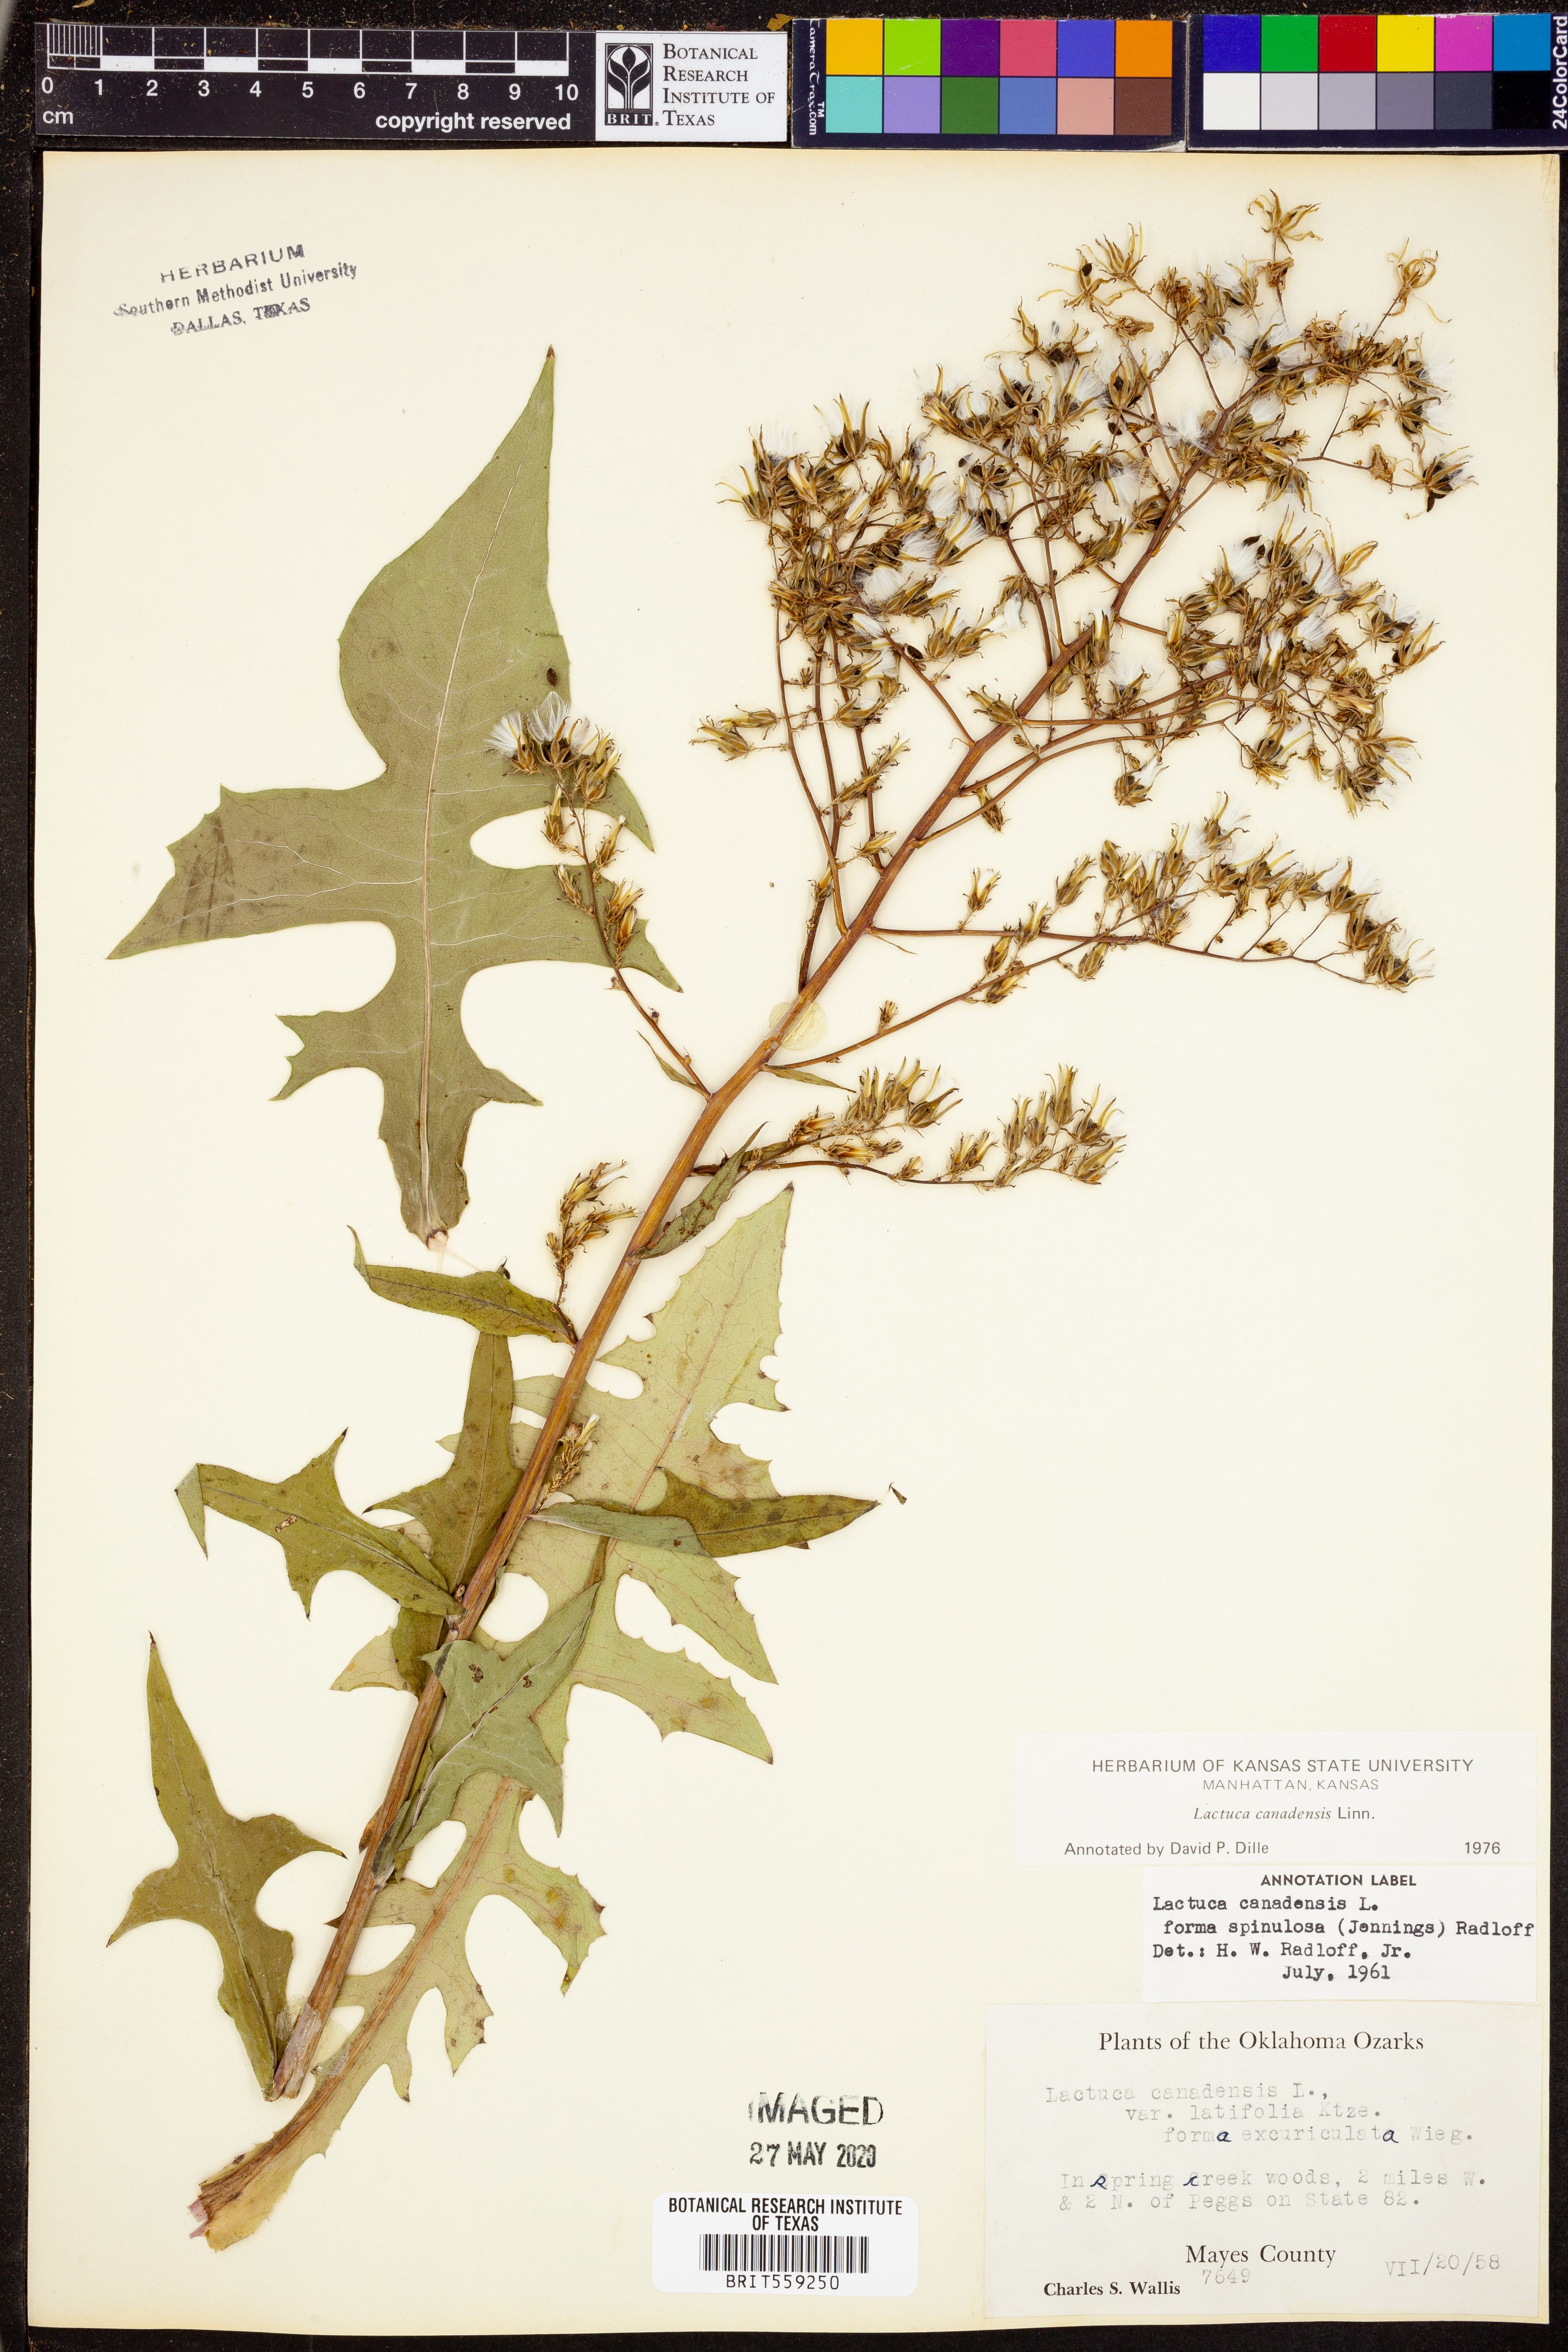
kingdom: Plantae
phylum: Tracheophyta
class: Magnoliopsida
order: Asterales
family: Asteraceae
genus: Lactuca
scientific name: Lactuca canadensis
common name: Canada lettuce
